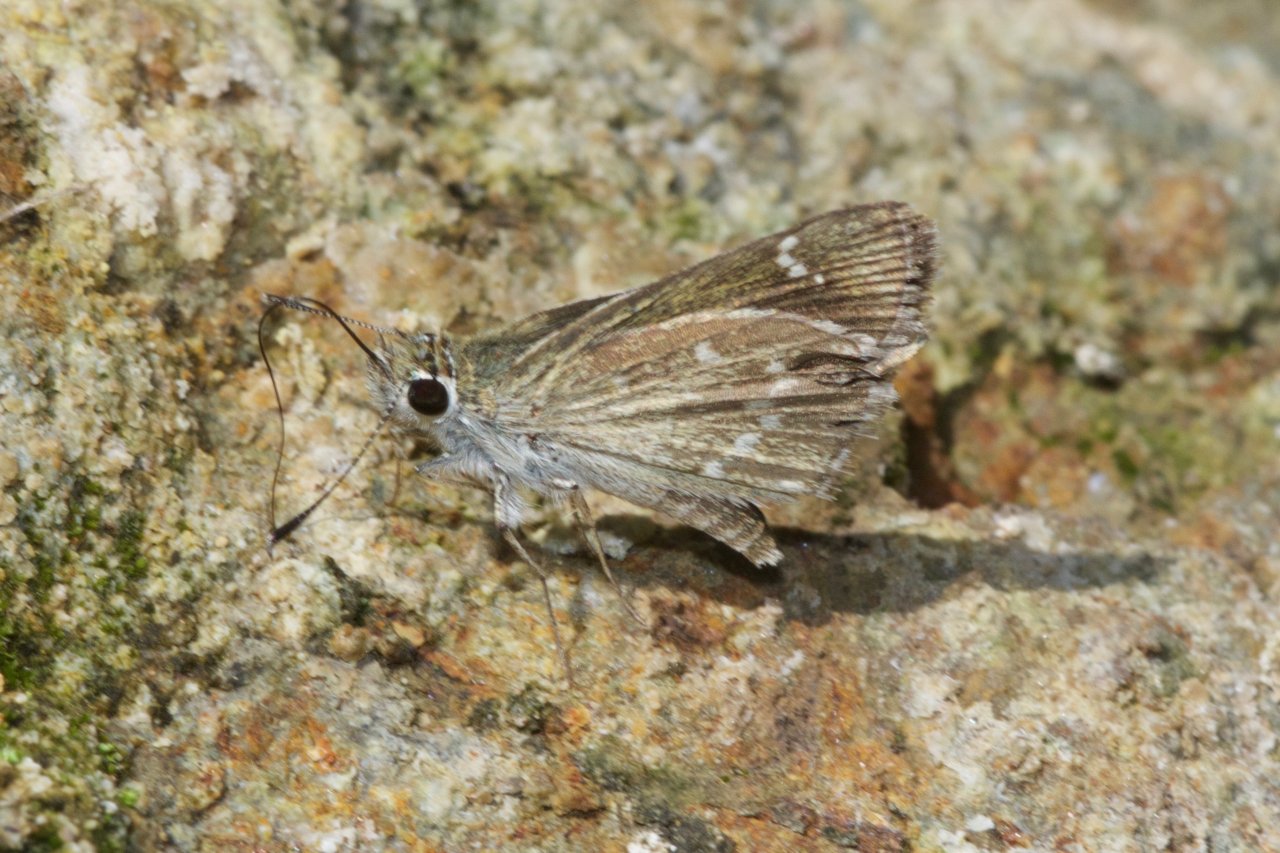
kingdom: Animalia
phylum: Arthropoda
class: Insecta
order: Lepidoptera
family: Hesperiidae
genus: Mastor
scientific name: Mastor nereus
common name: Slaty Roadside-Skipper
